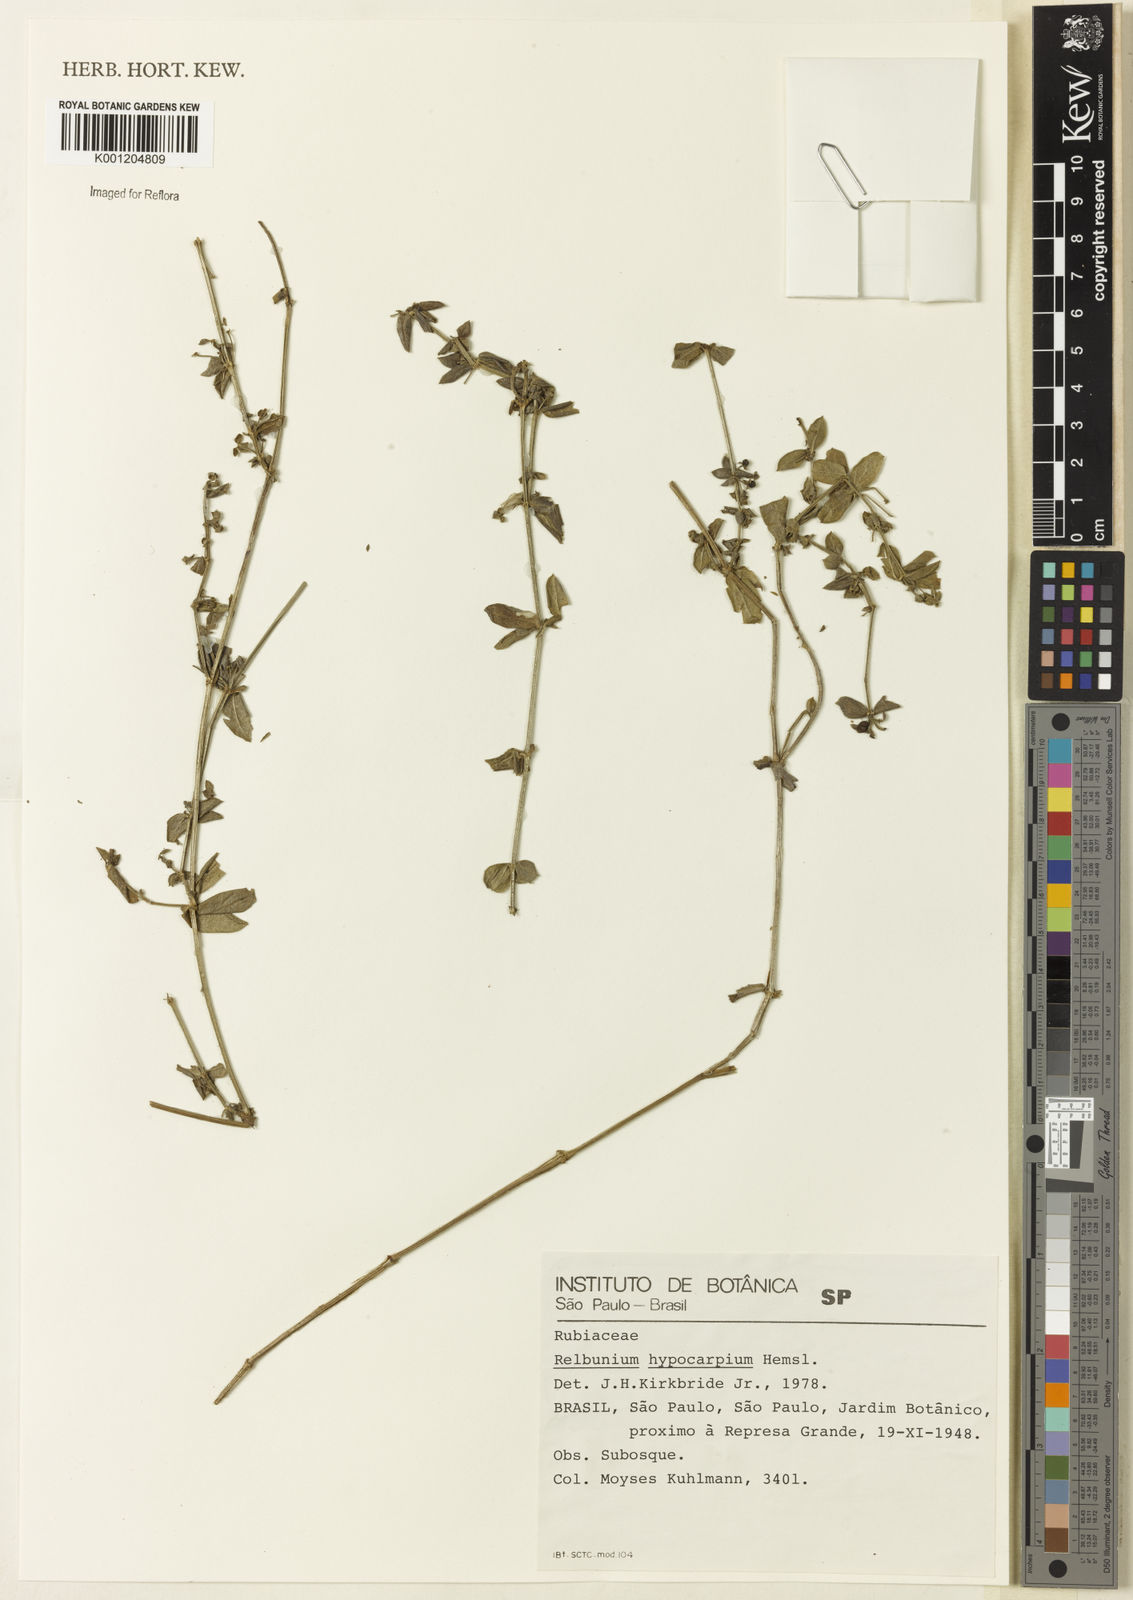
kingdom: Plantae
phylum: Tracheophyta
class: Magnoliopsida
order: Gentianales
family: Rubiaceae
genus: Galium
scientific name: Galium hypocarpium
